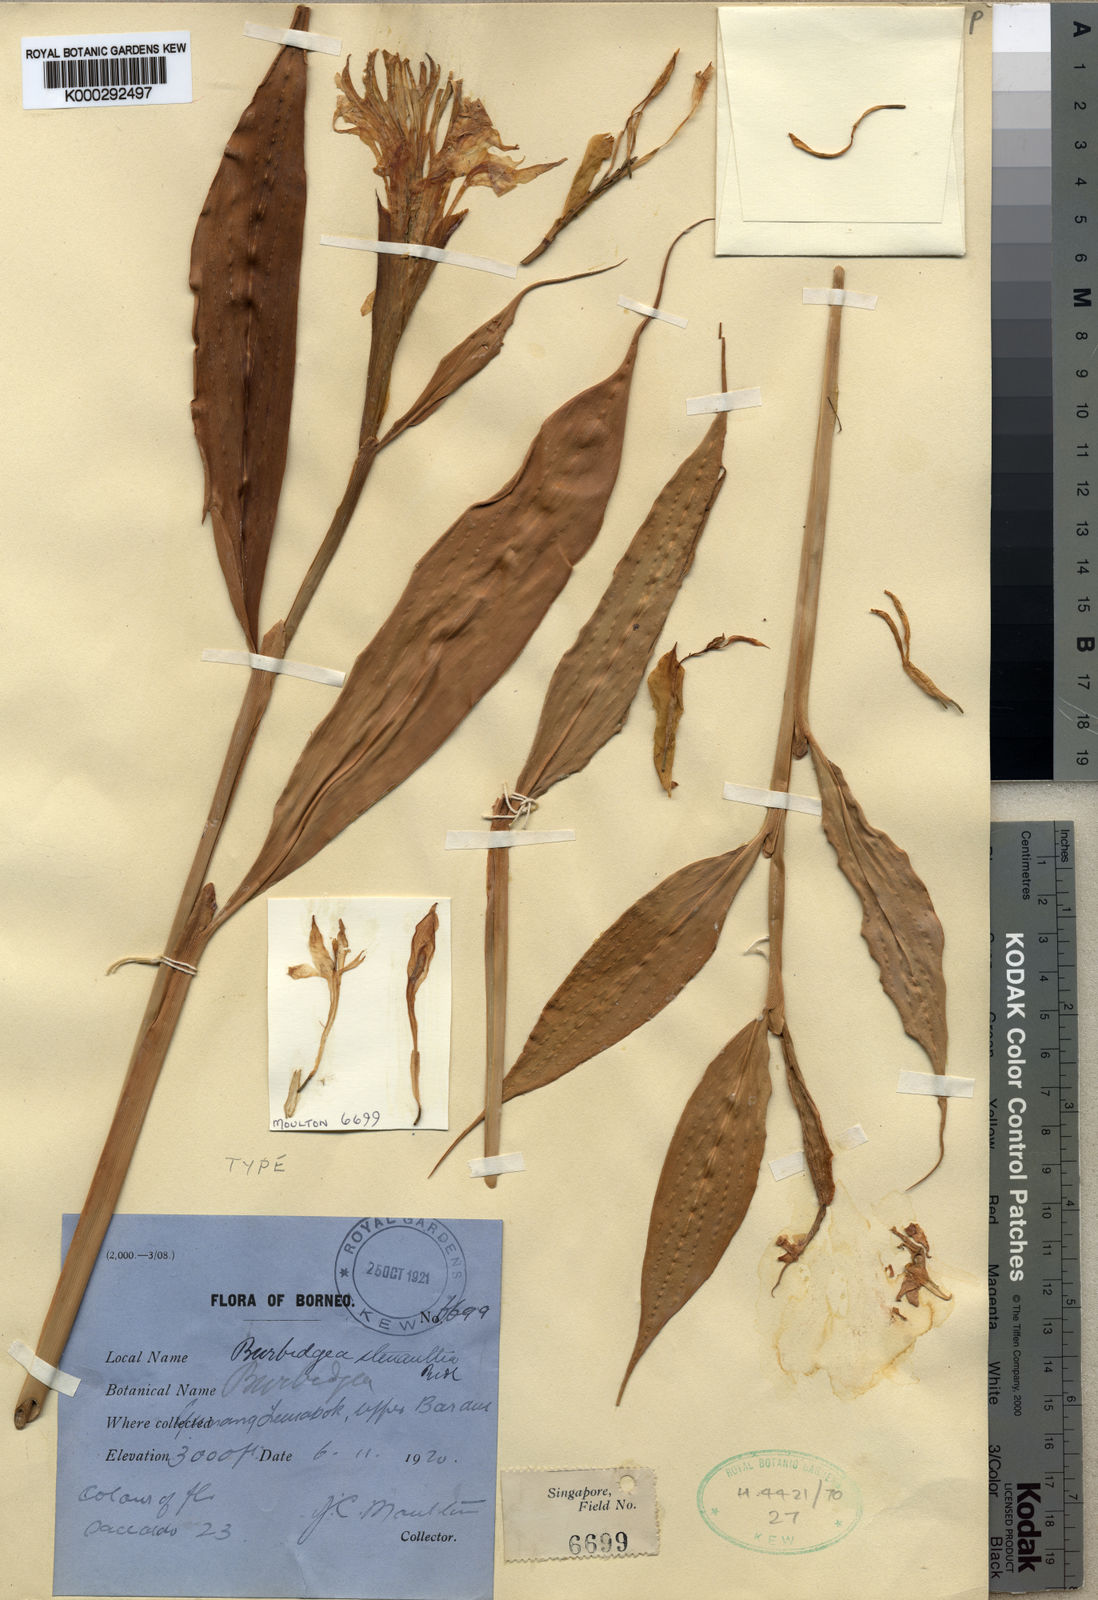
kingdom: Plantae
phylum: Tracheophyta
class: Liliopsida
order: Zingiberales
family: Zingiberaceae
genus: Burbidgea
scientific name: Burbidgea stenantha
